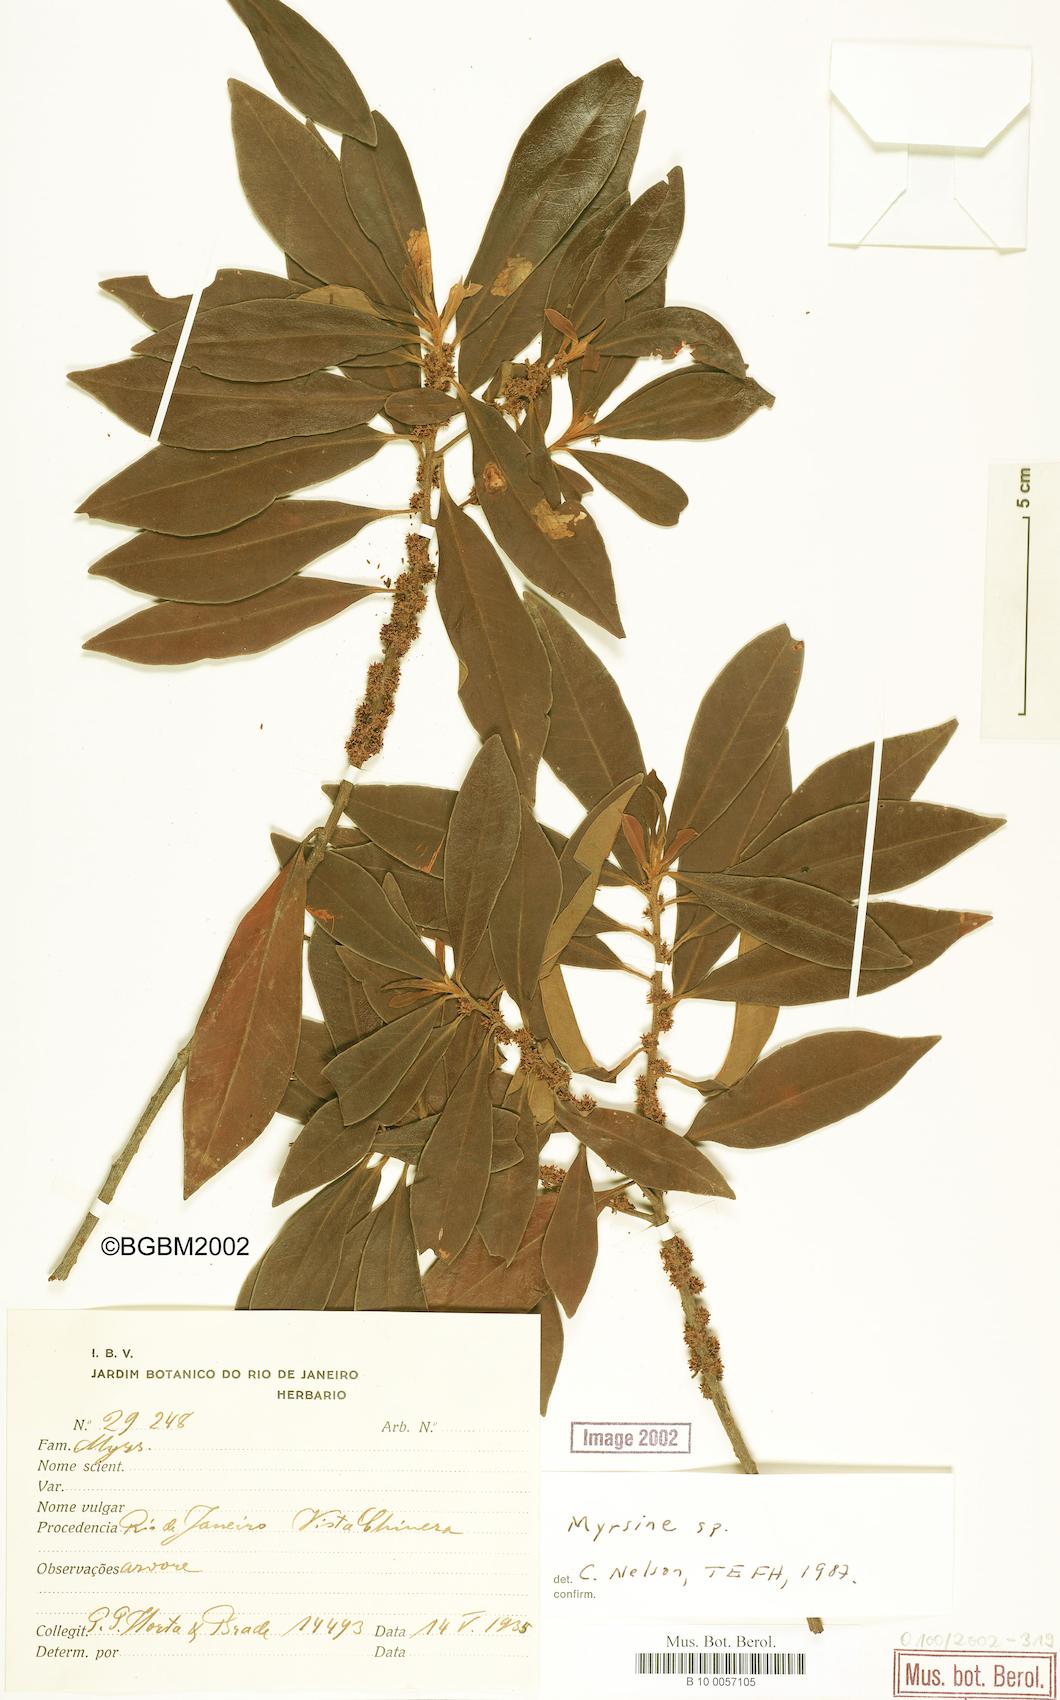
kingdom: Plantae
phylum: Tracheophyta
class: Magnoliopsida
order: Ericales
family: Primulaceae
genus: Myrsine
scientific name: Myrsine
